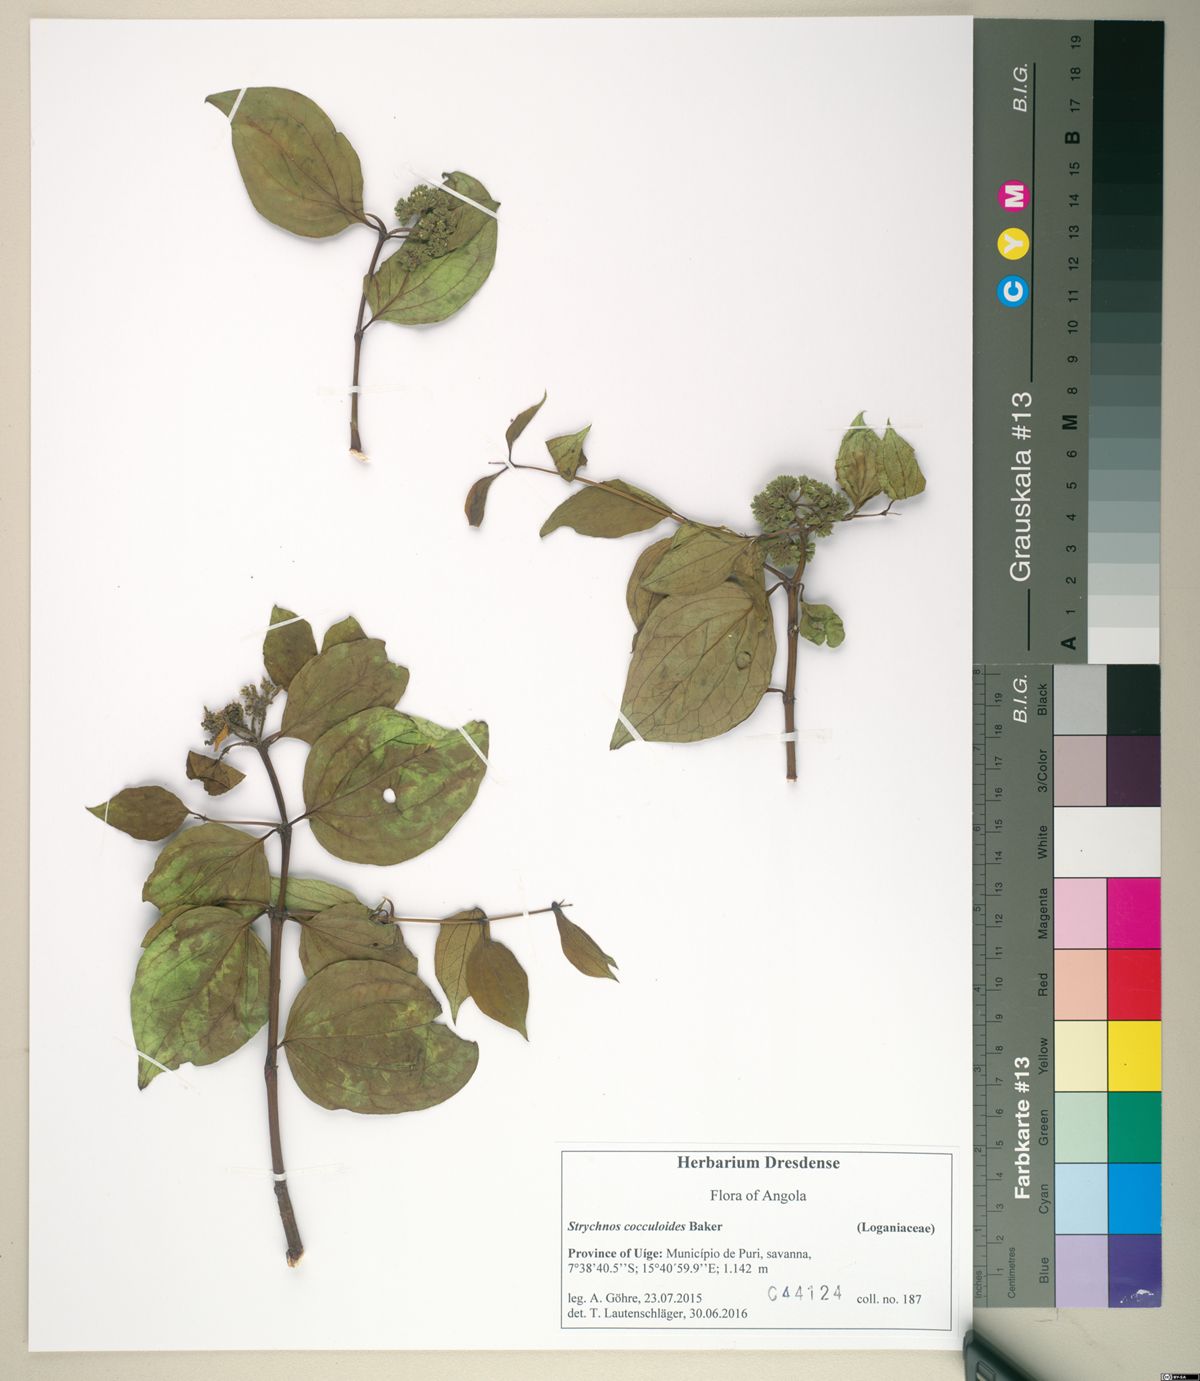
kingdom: Plantae
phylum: Tracheophyta
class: Magnoliopsida
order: Gentianales
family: Loganiaceae
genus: Strychnos
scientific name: Strychnos cocculoides
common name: Corky-bark monkey-orange
